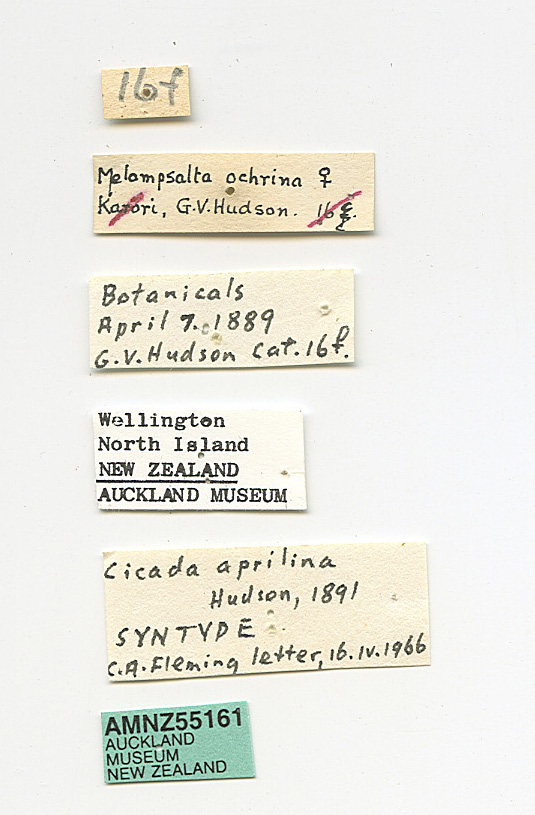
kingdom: Animalia
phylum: Arthropoda
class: Insecta
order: Hemiptera
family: Cicadidae
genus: Kikihia
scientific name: Kikihia ochrina
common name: April green cicada
